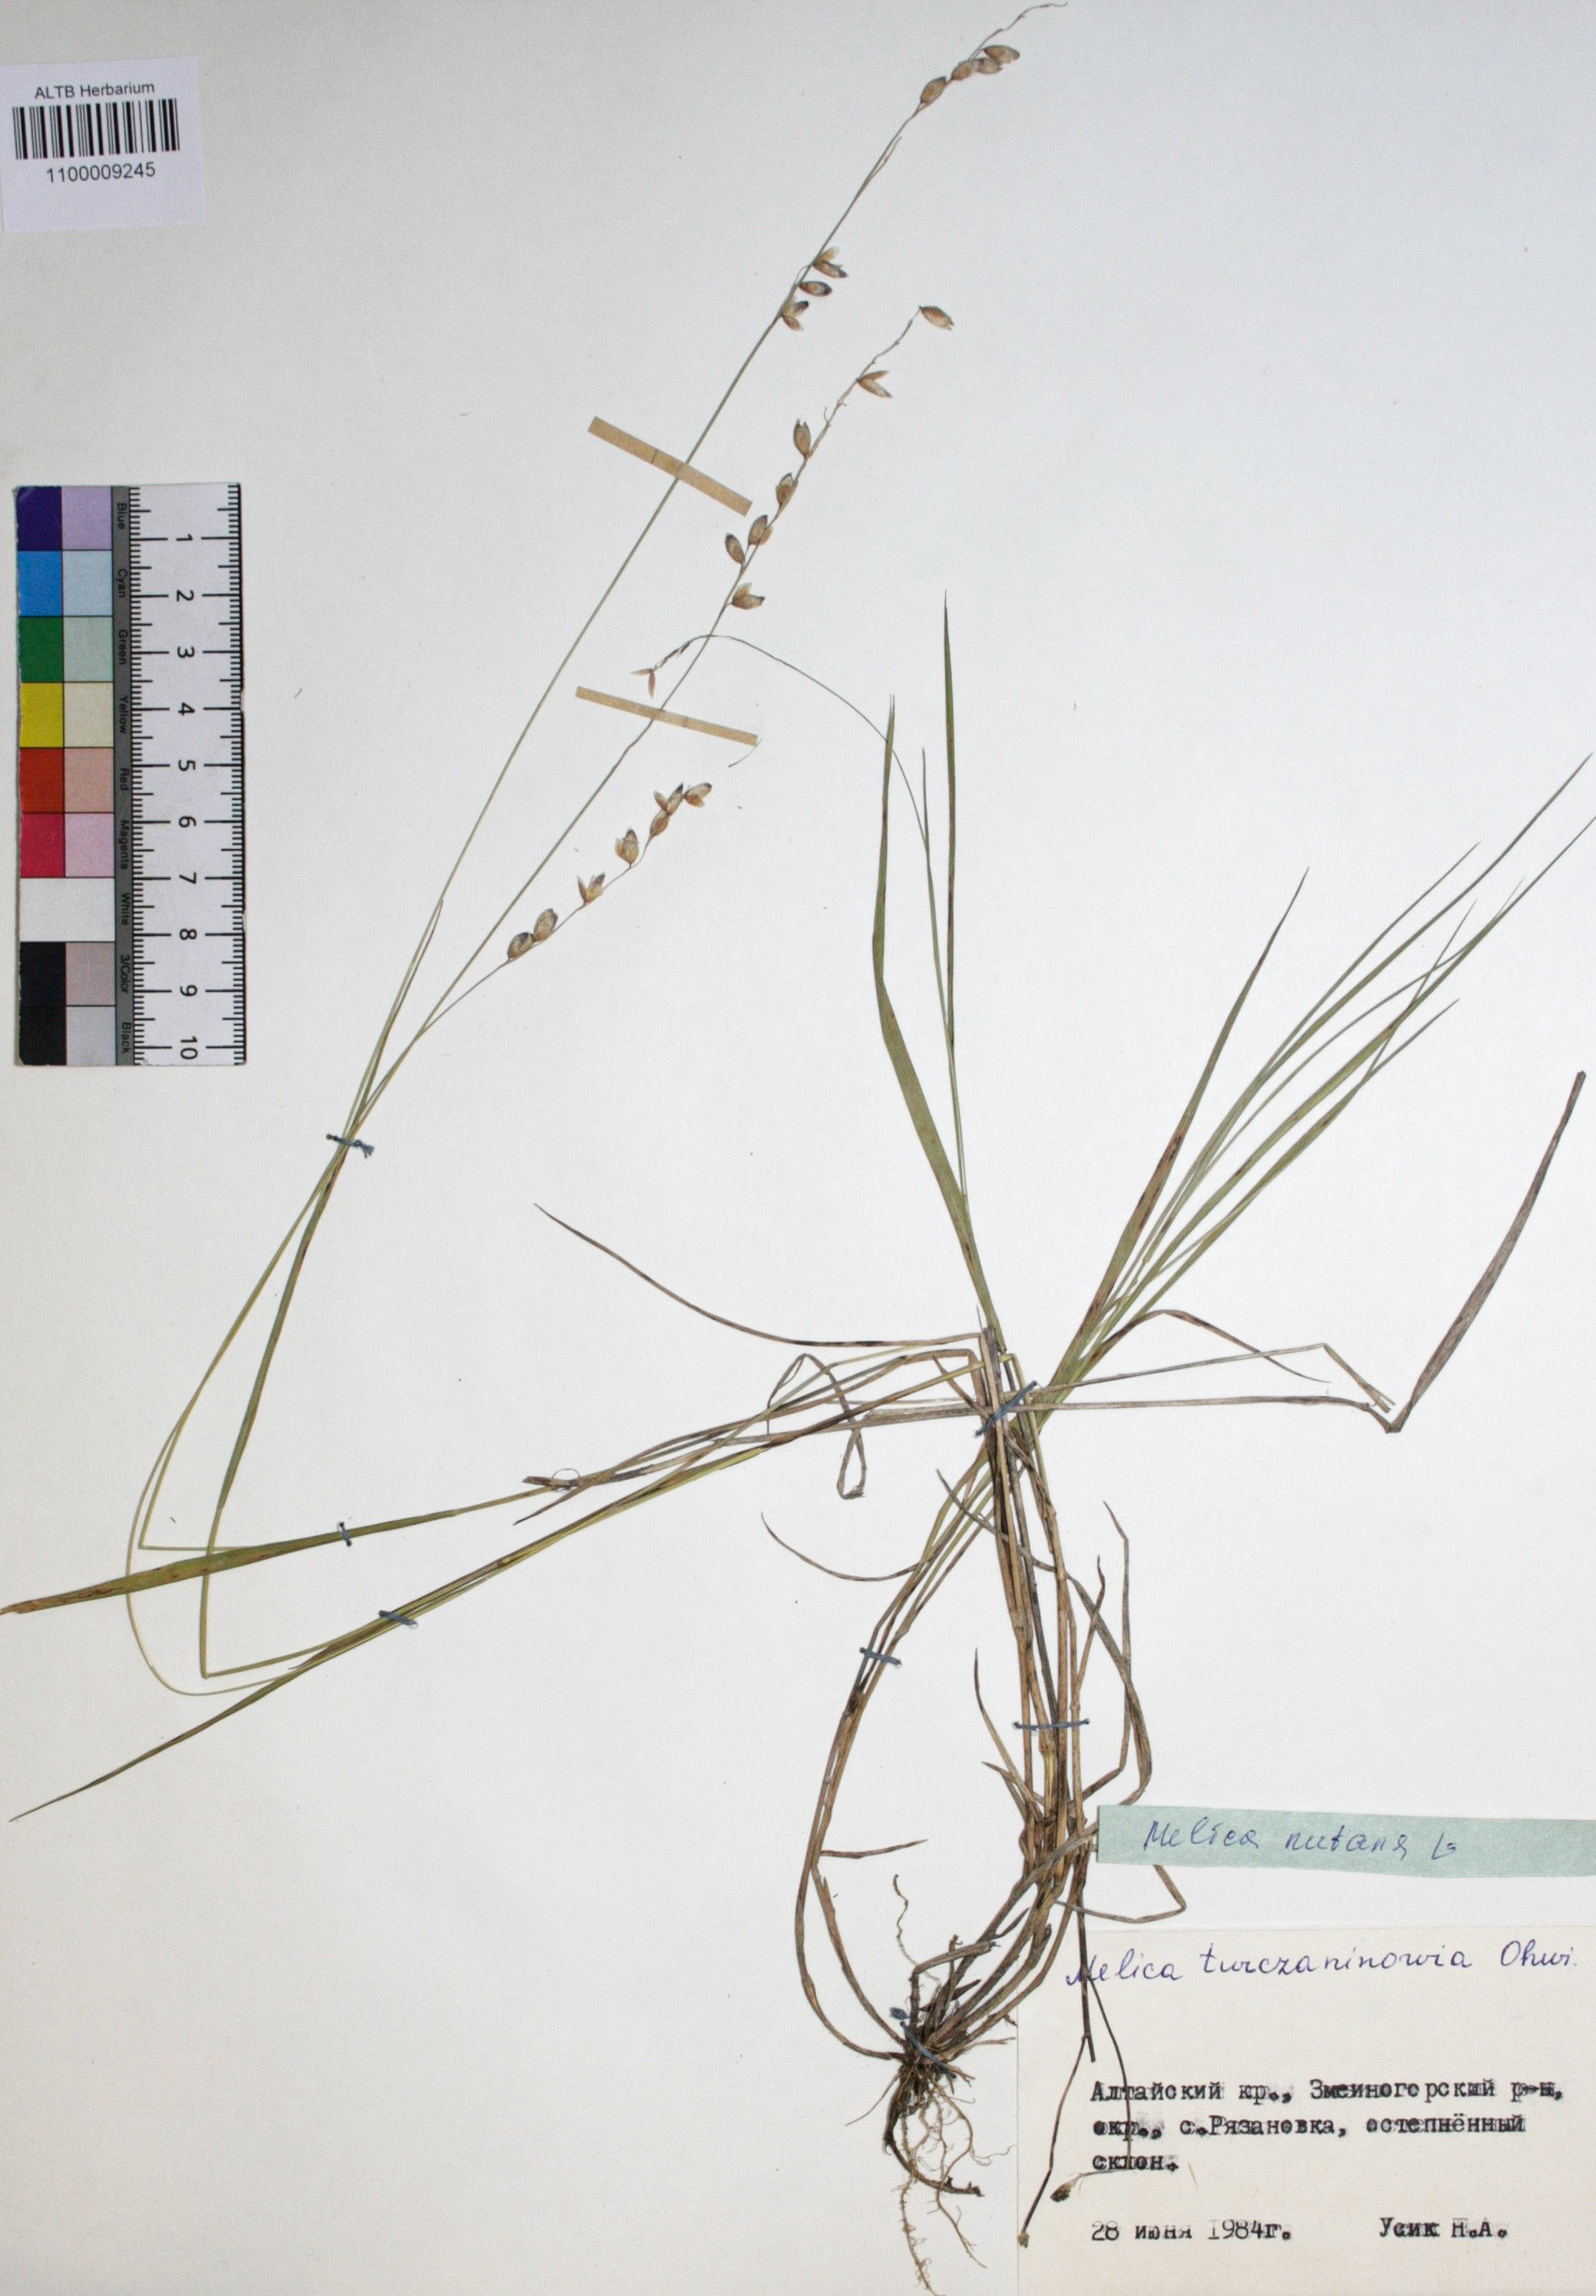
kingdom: Plantae
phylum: Tracheophyta
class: Liliopsida
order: Poales
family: Poaceae
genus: Melica
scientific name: Melica nutans
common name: Mountain melick
